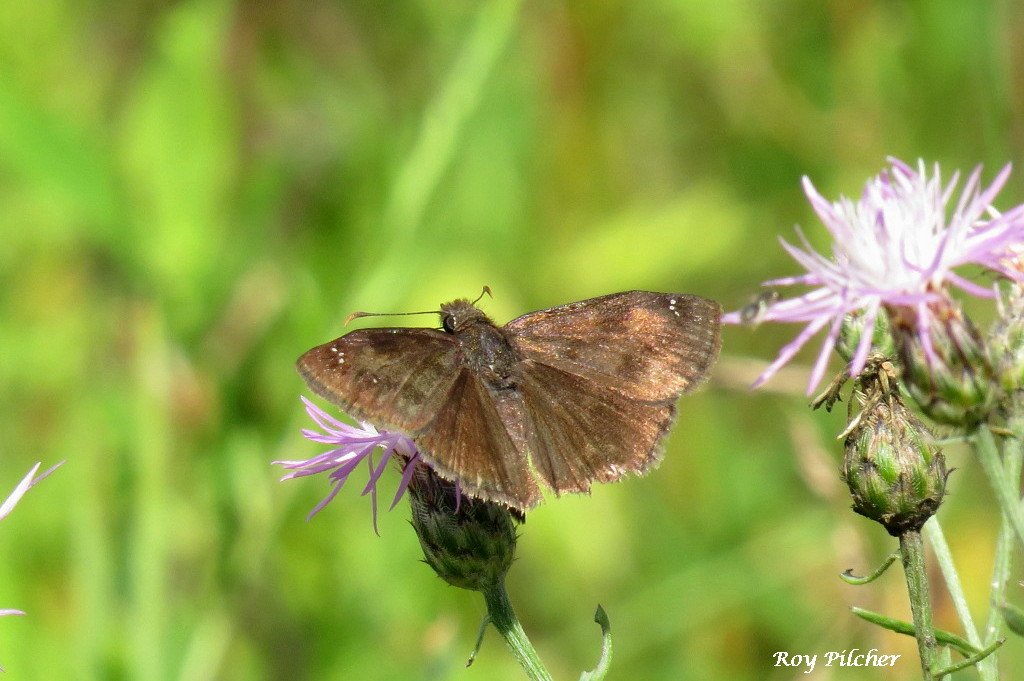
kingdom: Animalia
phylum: Arthropoda
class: Insecta
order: Lepidoptera
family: Hesperiidae
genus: Gesta
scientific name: Gesta
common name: Wild Indigo Duskywing
